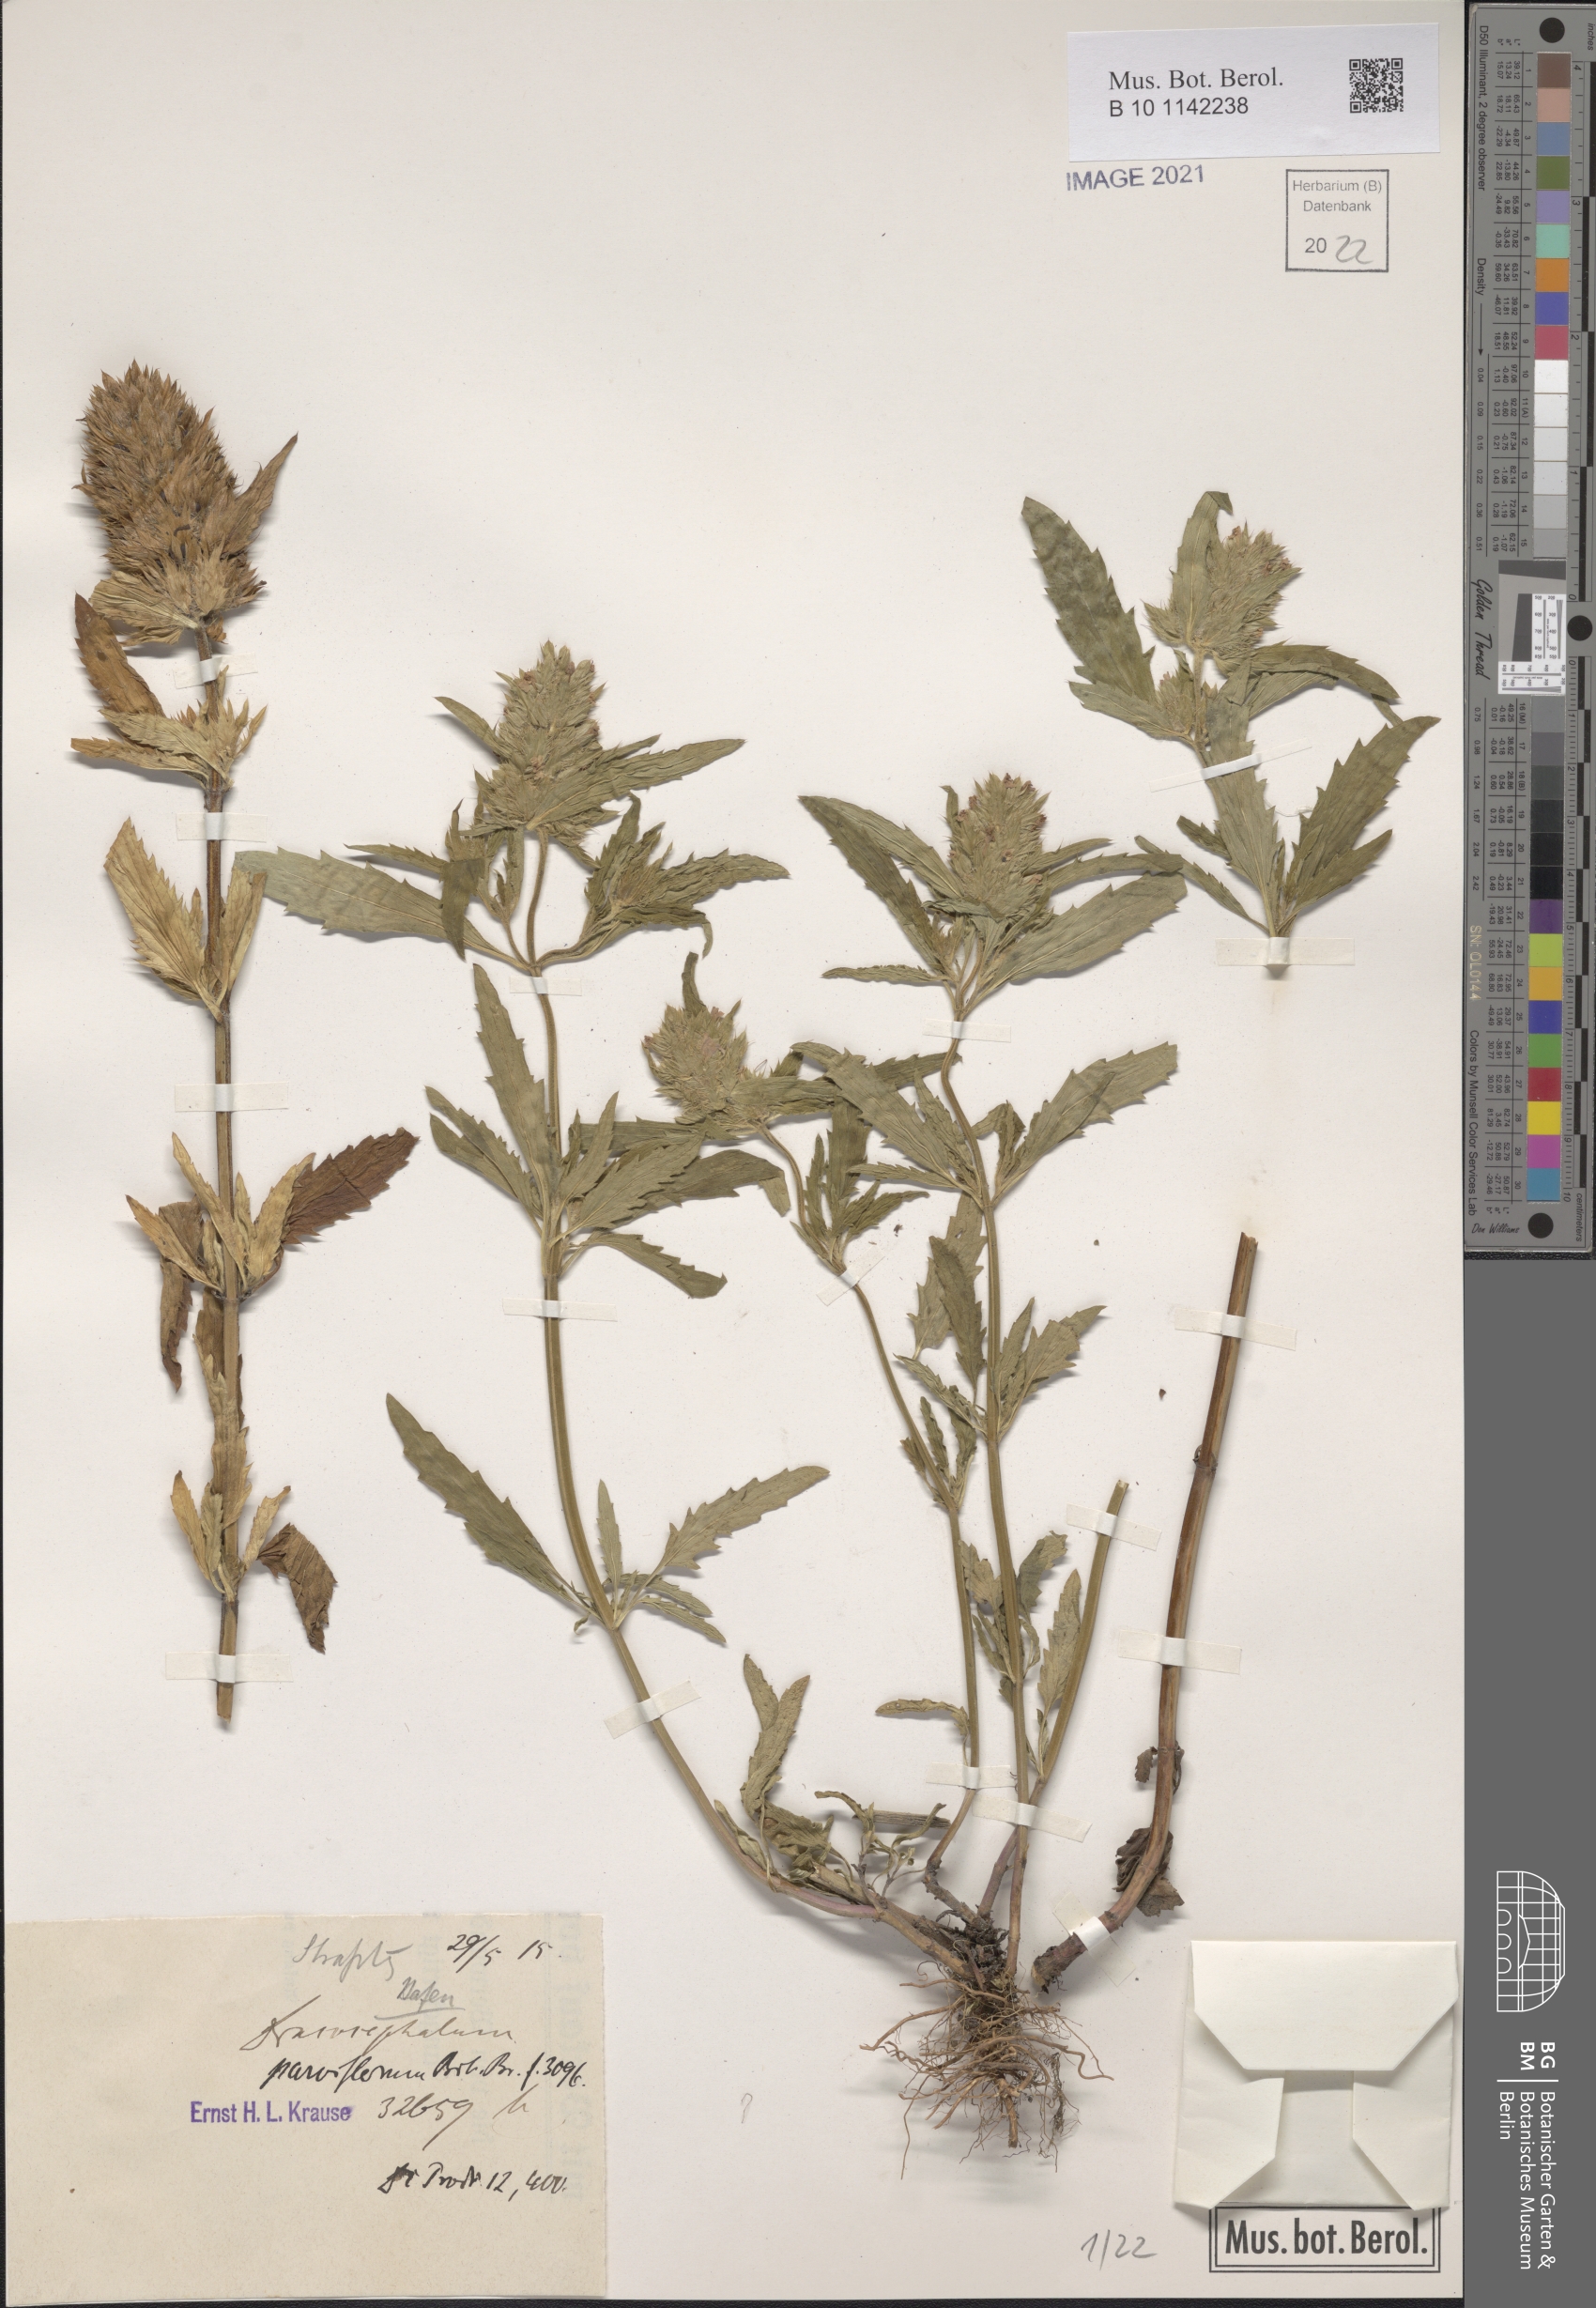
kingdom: Plantae
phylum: Tracheophyta
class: Magnoliopsida
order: Lamiales
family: Lamiaceae
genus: Dracocephalum
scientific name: Dracocephalum parviflorum
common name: American dragonhead
